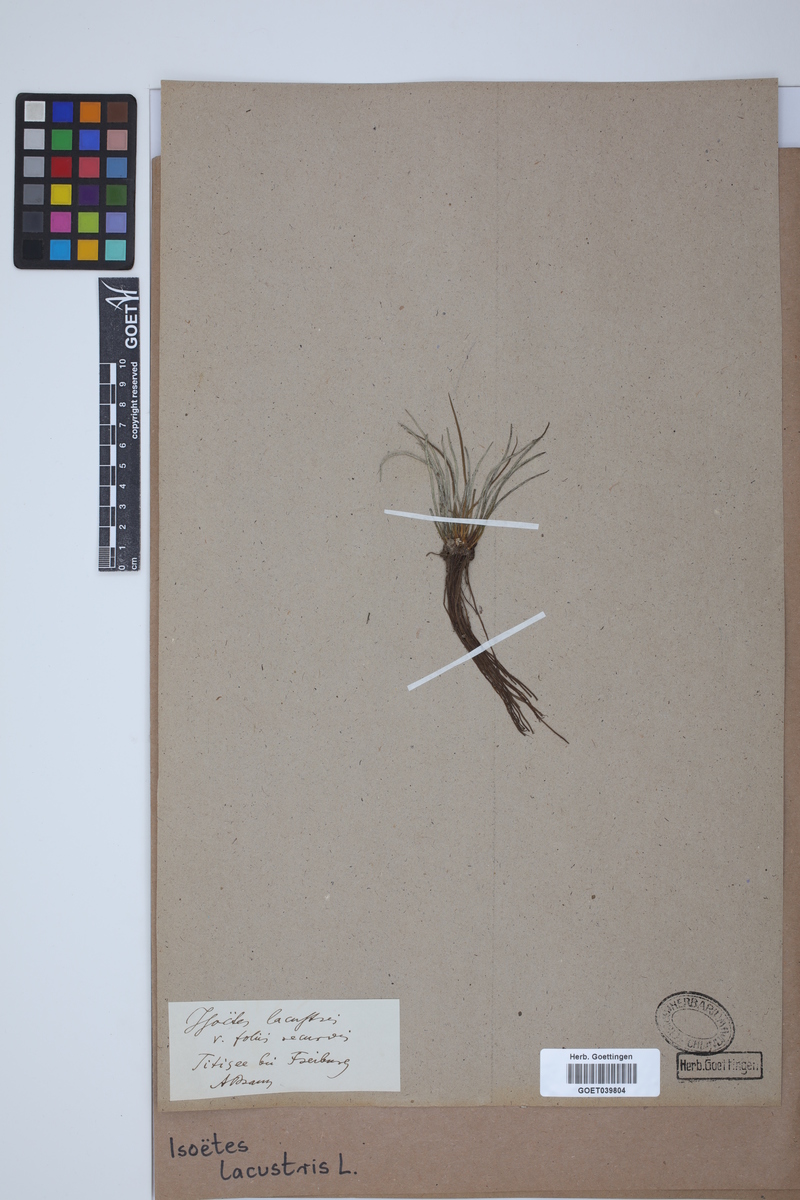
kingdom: Plantae
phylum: Tracheophyta
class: Lycopodiopsida
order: Isoetales
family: Isoetaceae
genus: Isoetes
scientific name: Isoetes lacustris
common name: Common quillwort
